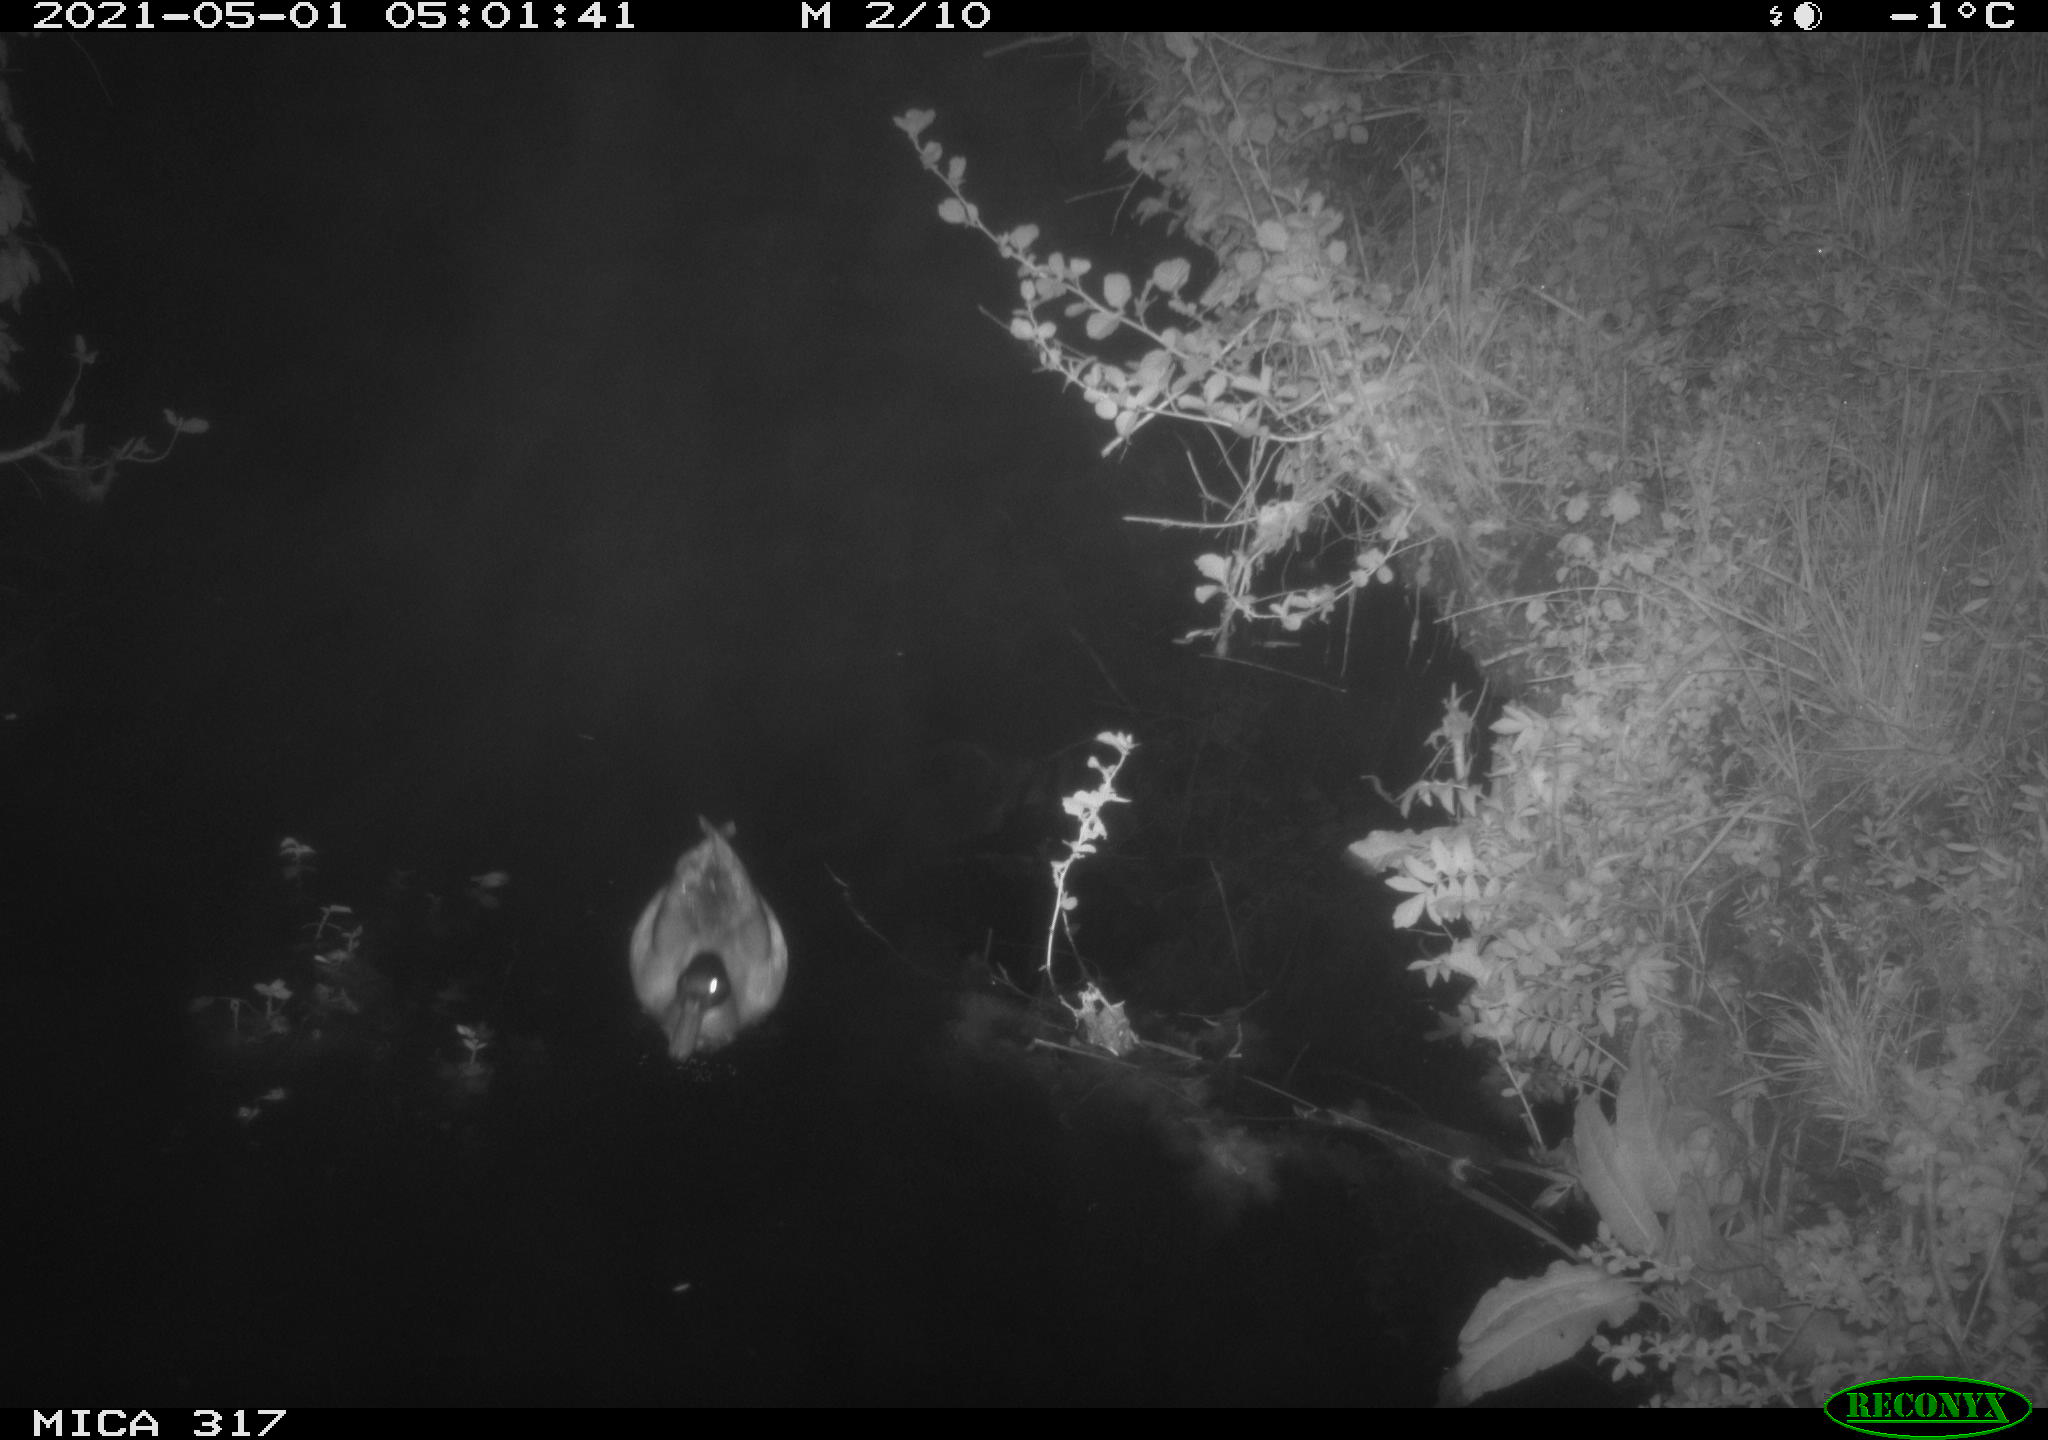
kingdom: Animalia
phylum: Chordata
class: Aves
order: Anseriformes
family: Anatidae
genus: Anas
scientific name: Anas
